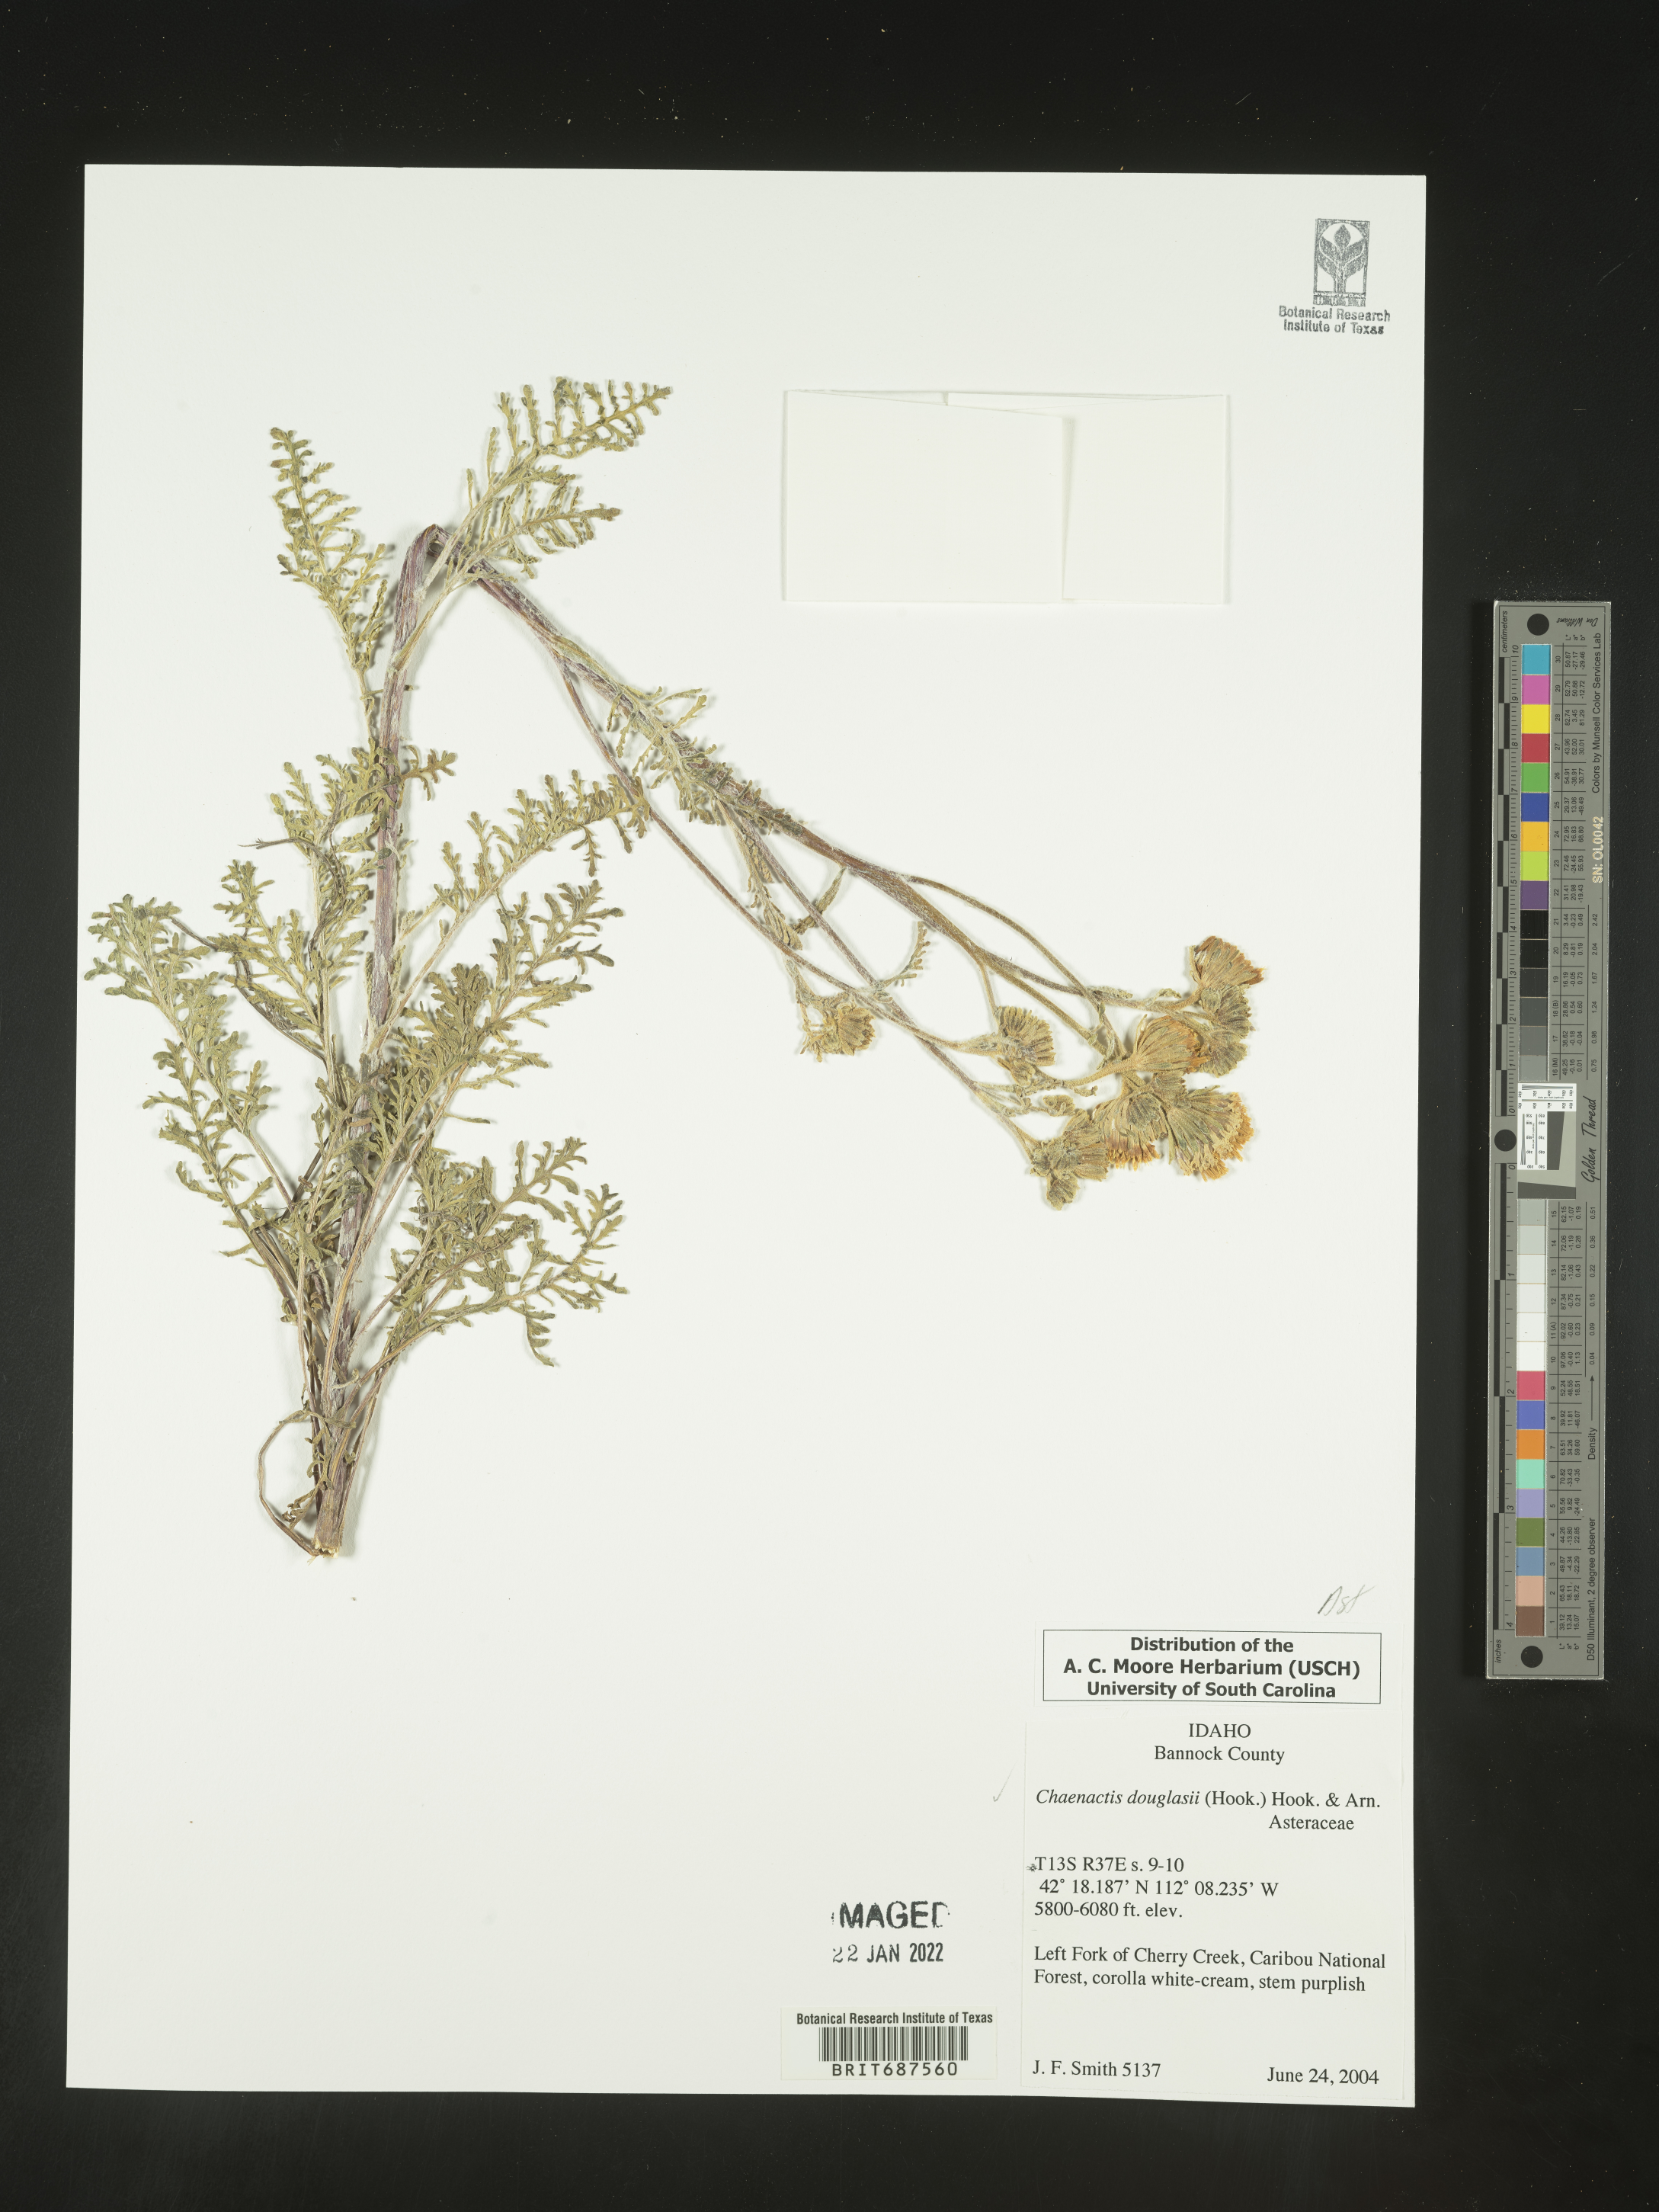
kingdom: Plantae
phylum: Tracheophyta
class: Magnoliopsida
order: Asterales
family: Asteraceae
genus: Chaenactis
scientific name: Chaenactis douglasii
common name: Hoary pincushion
